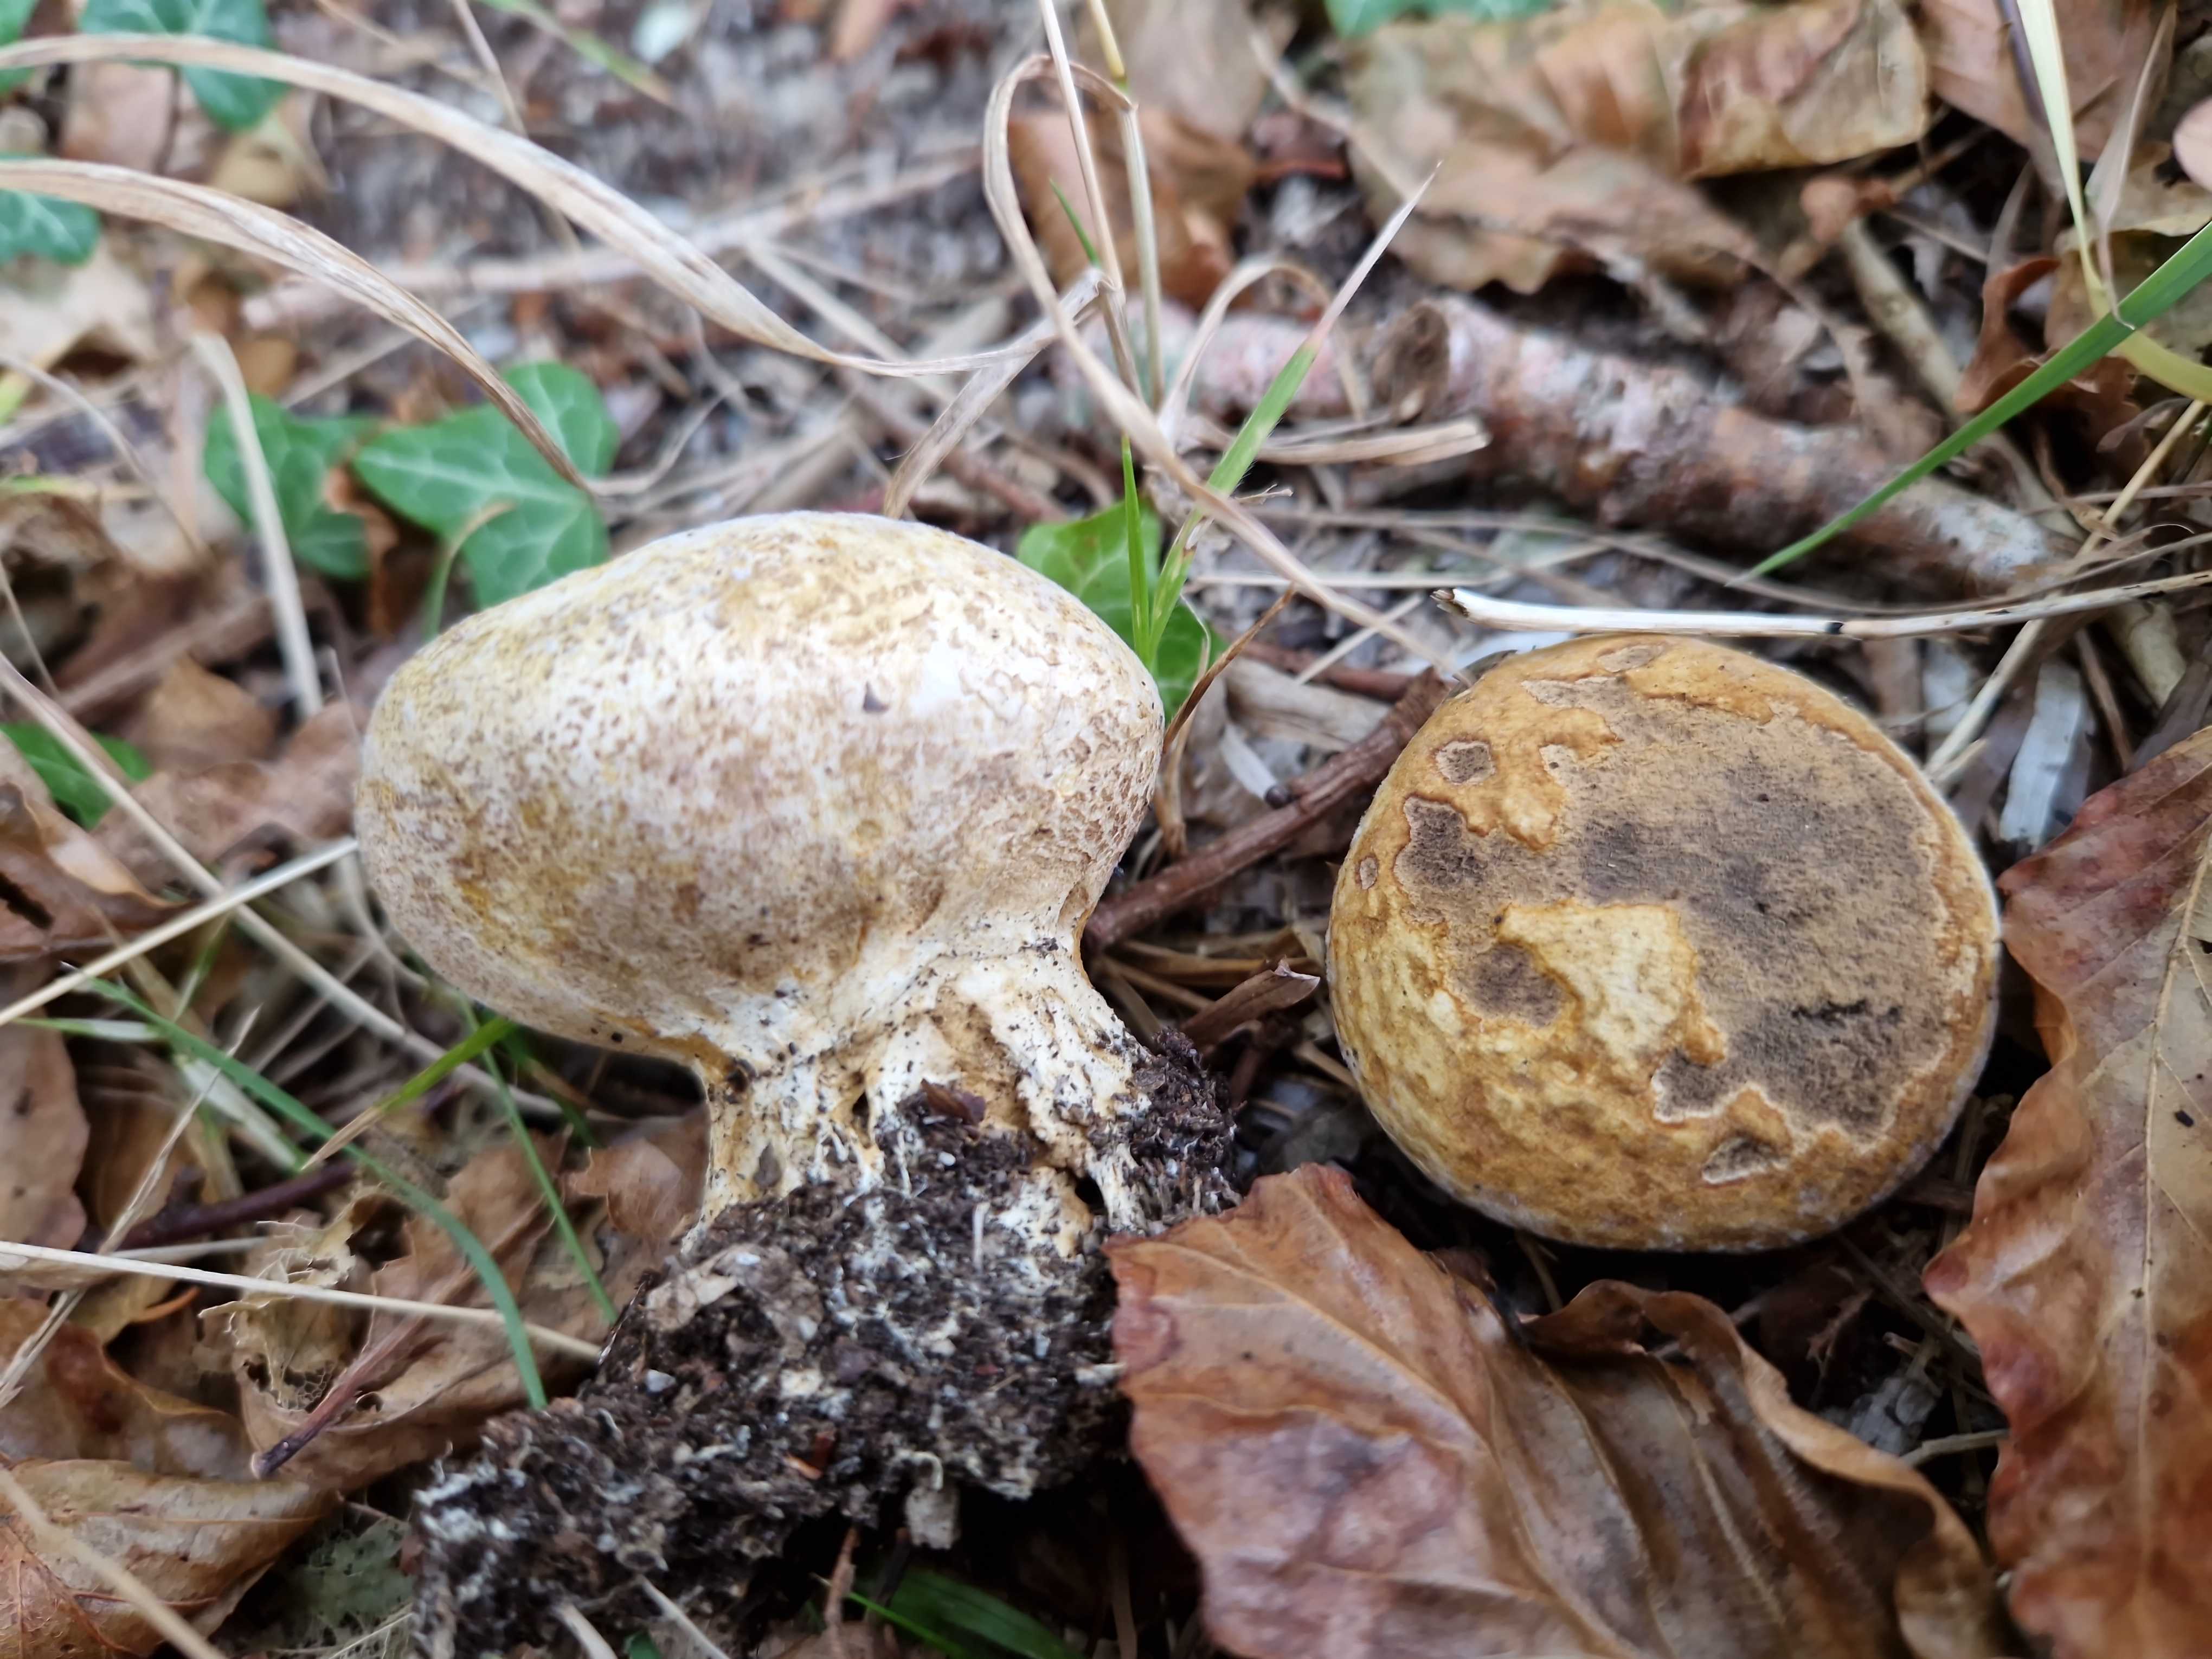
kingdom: Fungi
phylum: Basidiomycota
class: Agaricomycetes
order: Boletales
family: Sclerodermataceae
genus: Scleroderma
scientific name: Scleroderma verrucosum
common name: stilket bruskbold
